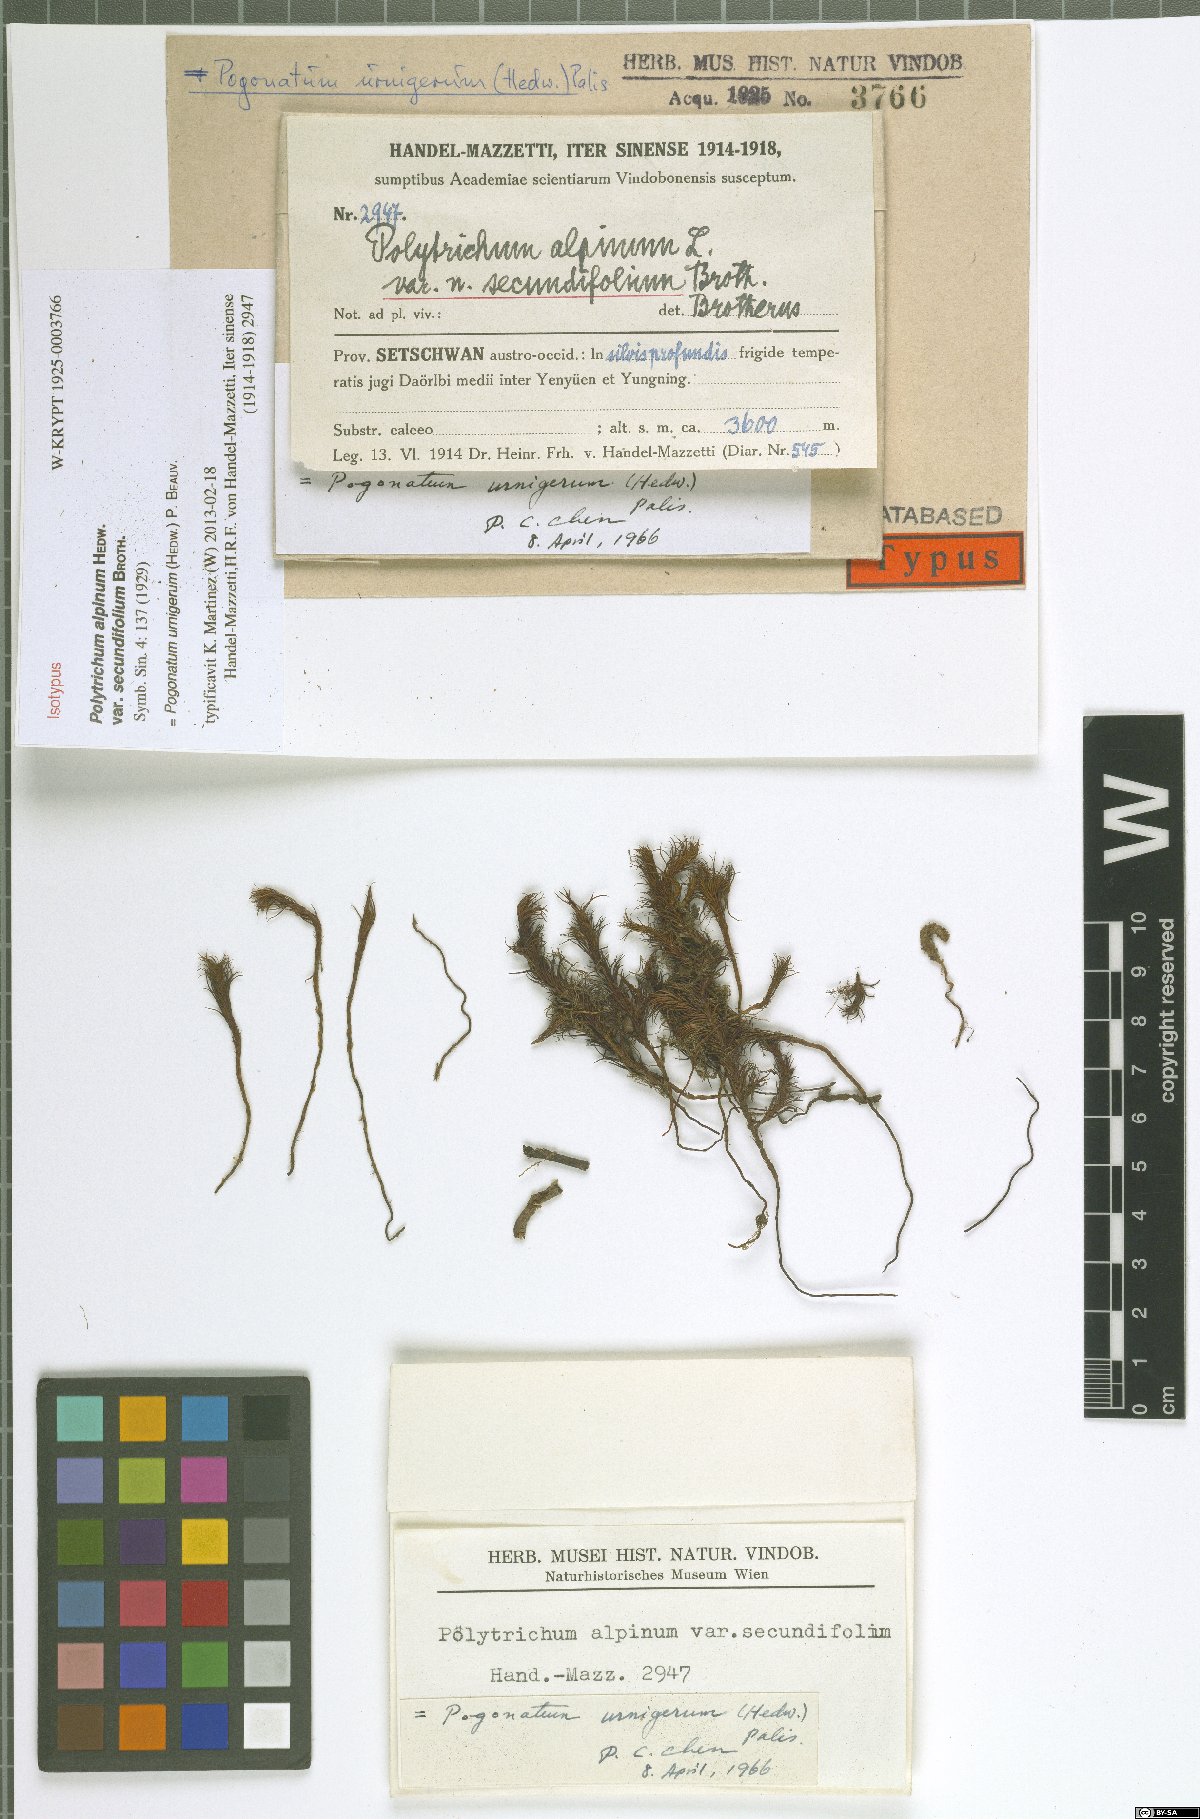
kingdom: Plantae
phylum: Bryophyta
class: Polytrichopsida
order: Polytrichales
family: Polytrichaceae
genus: Pogonatum
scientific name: Pogonatum urnigerum
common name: Urn hair moss
